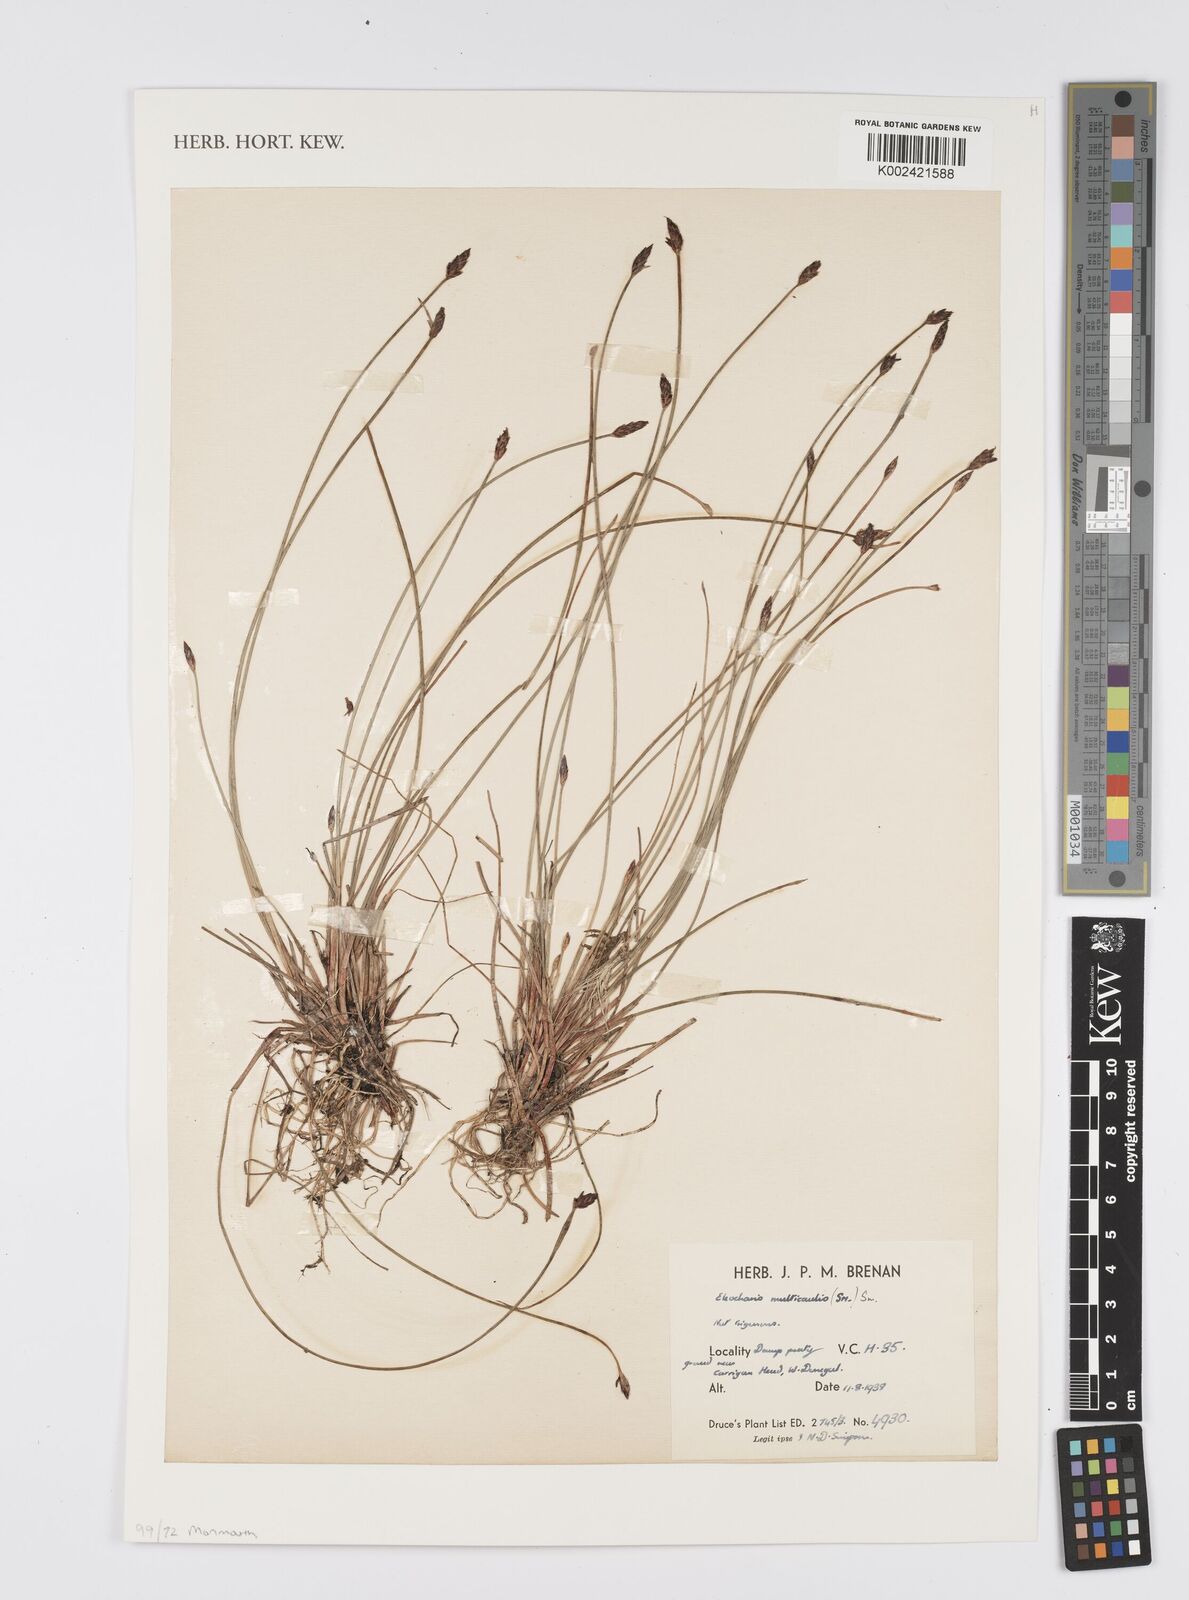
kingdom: Plantae
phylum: Tracheophyta
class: Liliopsida
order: Poales
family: Cyperaceae
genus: Eleocharis
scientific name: Eleocharis multicaulis
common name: Many-stalked spike-rush
